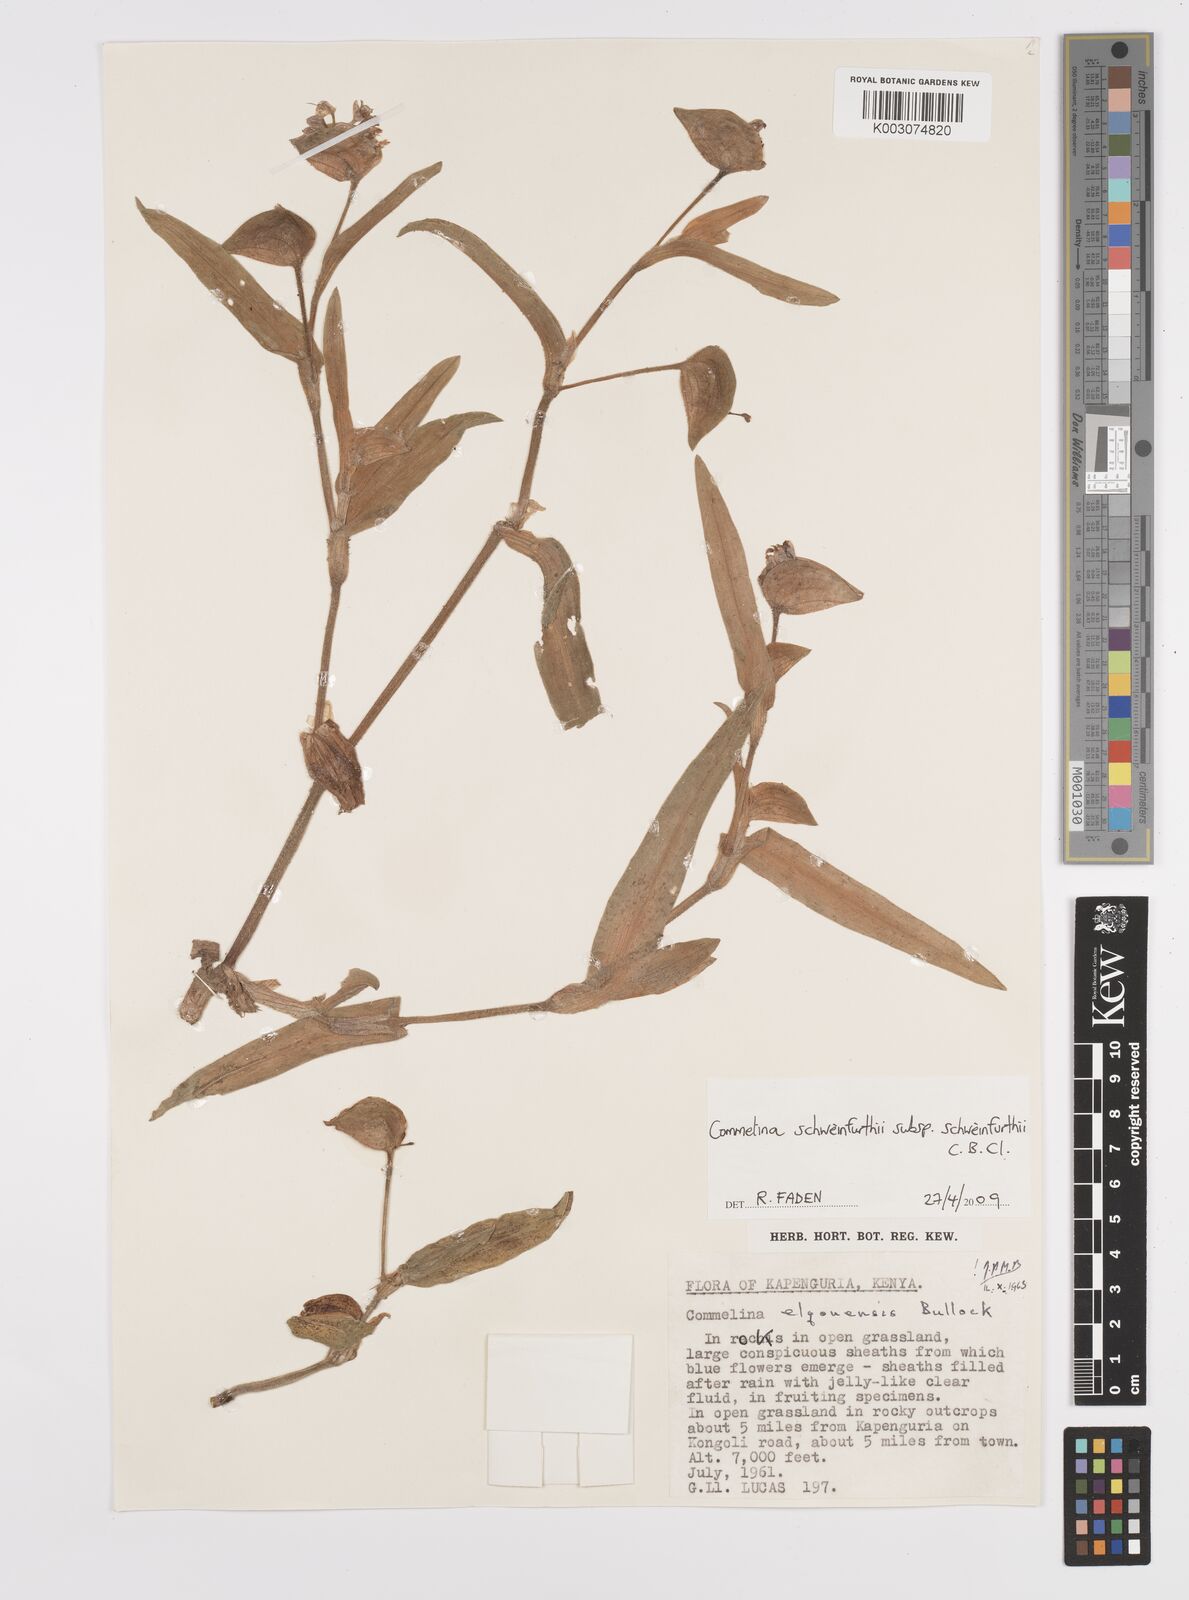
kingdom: Plantae
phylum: Tracheophyta
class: Liliopsida
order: Commelinales
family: Commelinaceae
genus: Commelina
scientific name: Commelina schweinfurthii
